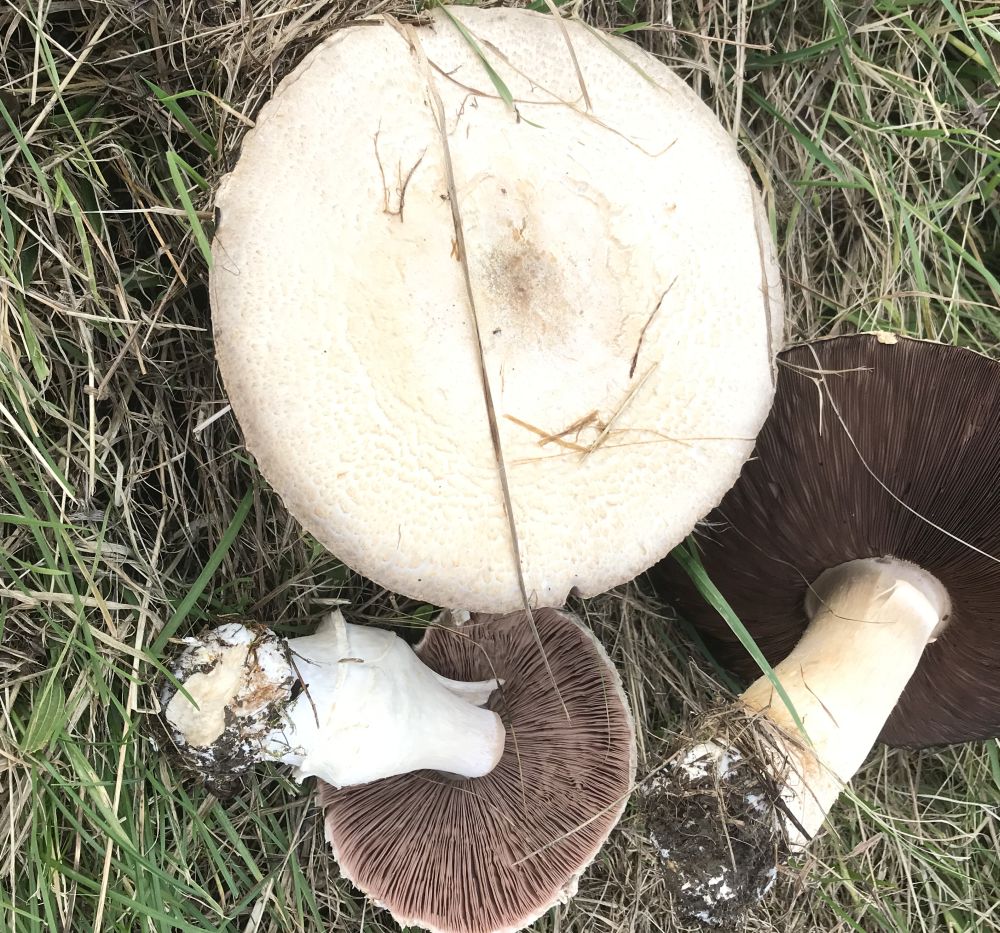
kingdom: Fungi
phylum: Basidiomycota
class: Agaricomycetes
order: Agaricales
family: Agaricaceae
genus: Agaricus
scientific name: Agaricus arvensis
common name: ager-champignon
